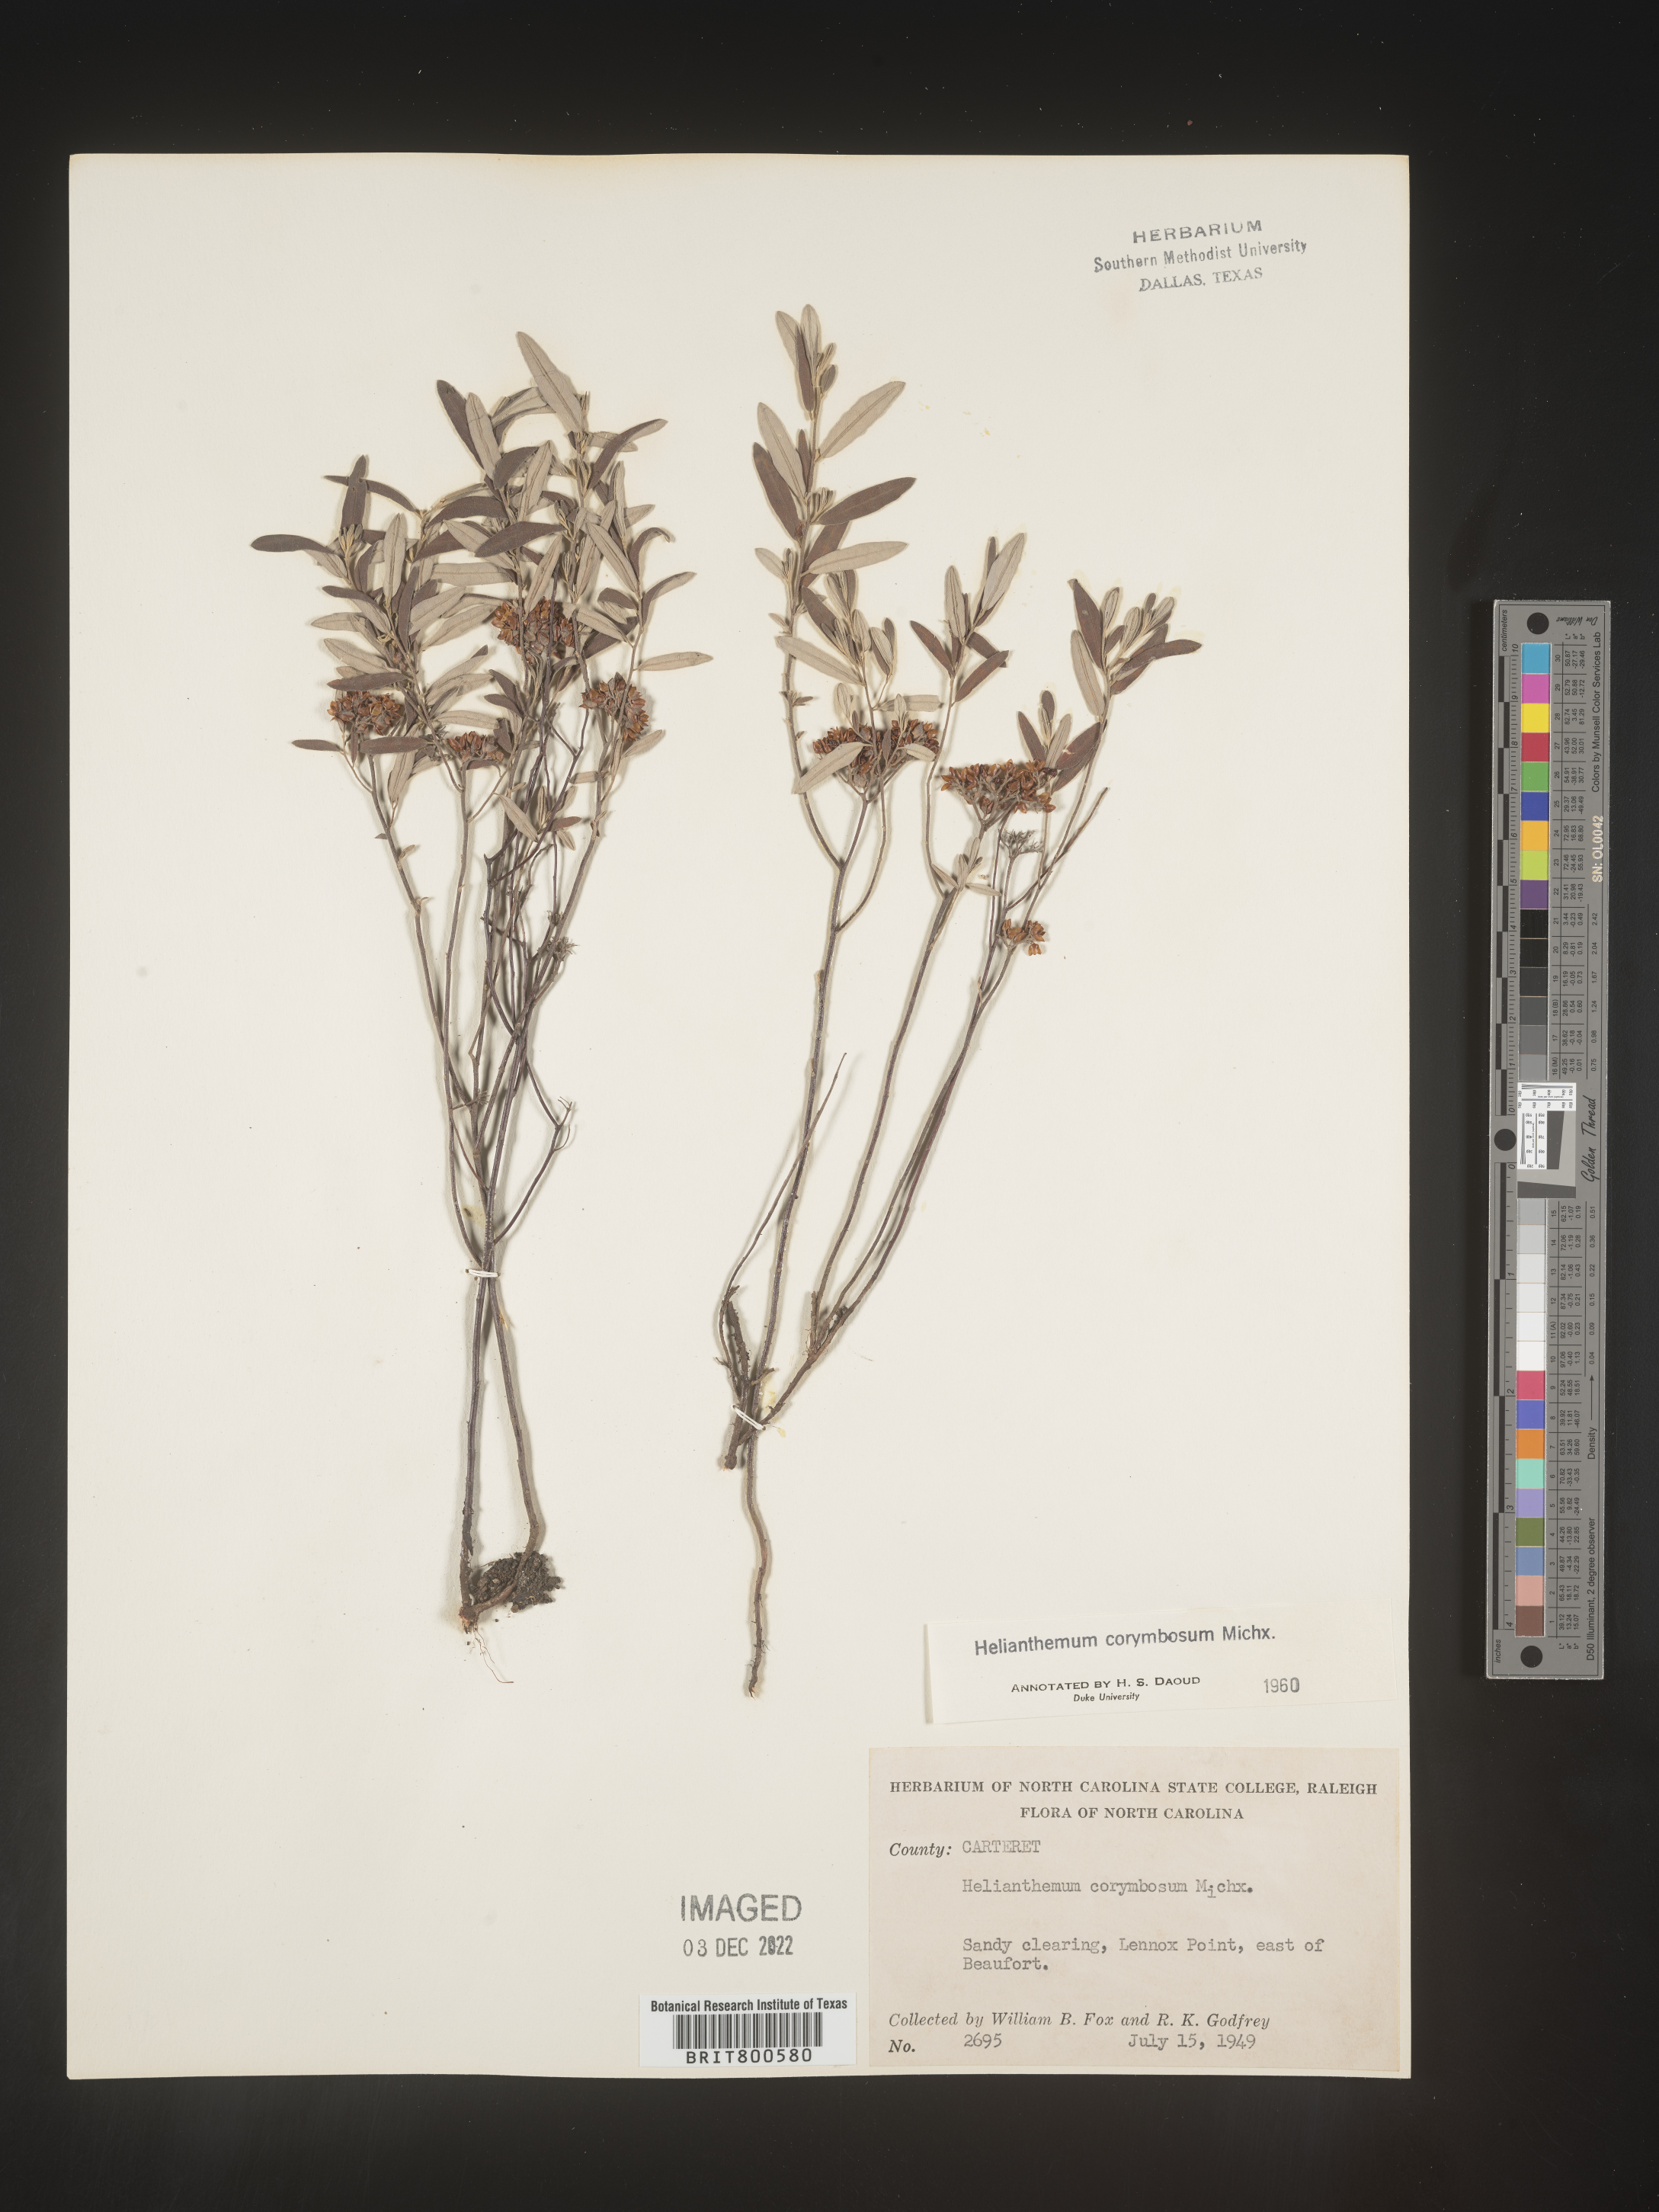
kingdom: Plantae
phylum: Tracheophyta
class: Magnoliopsida
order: Malvales
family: Cistaceae
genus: Crocanthemum
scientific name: Crocanthemum corymbosum
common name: Pinebarren sun-rose
